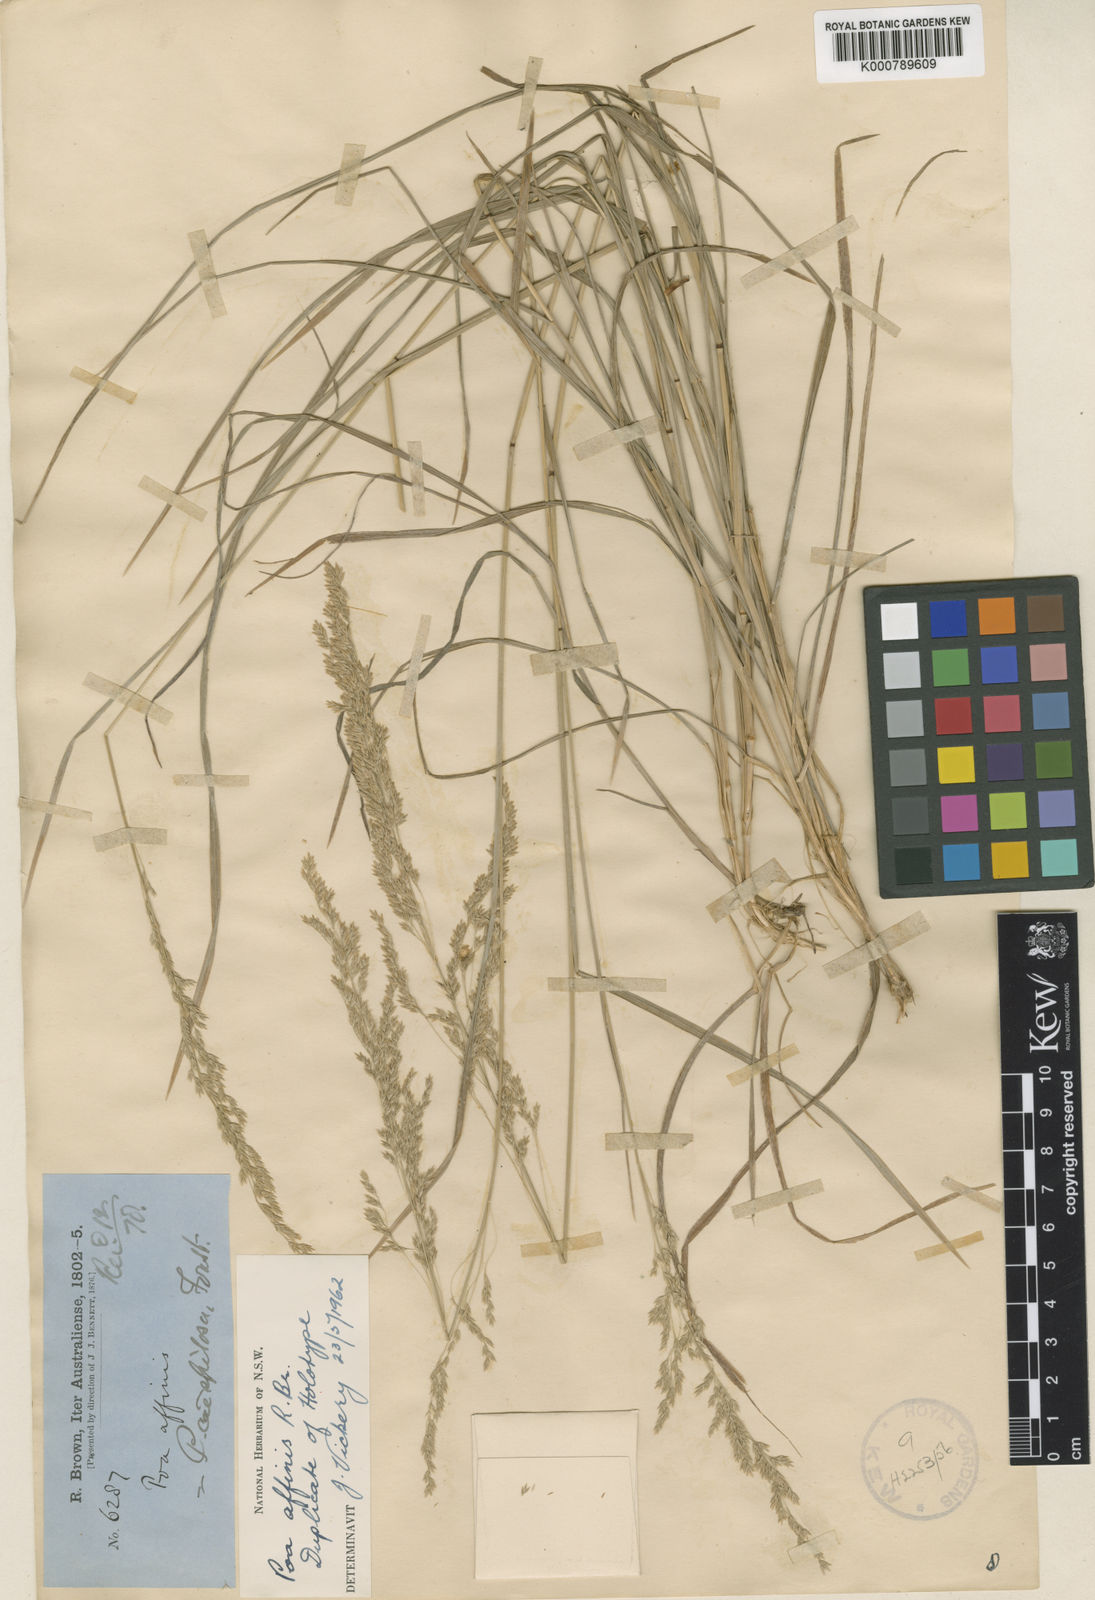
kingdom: Plantae
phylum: Tracheophyta
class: Liliopsida
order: Poales
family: Poaceae
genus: Poa
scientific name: Poa affinis
